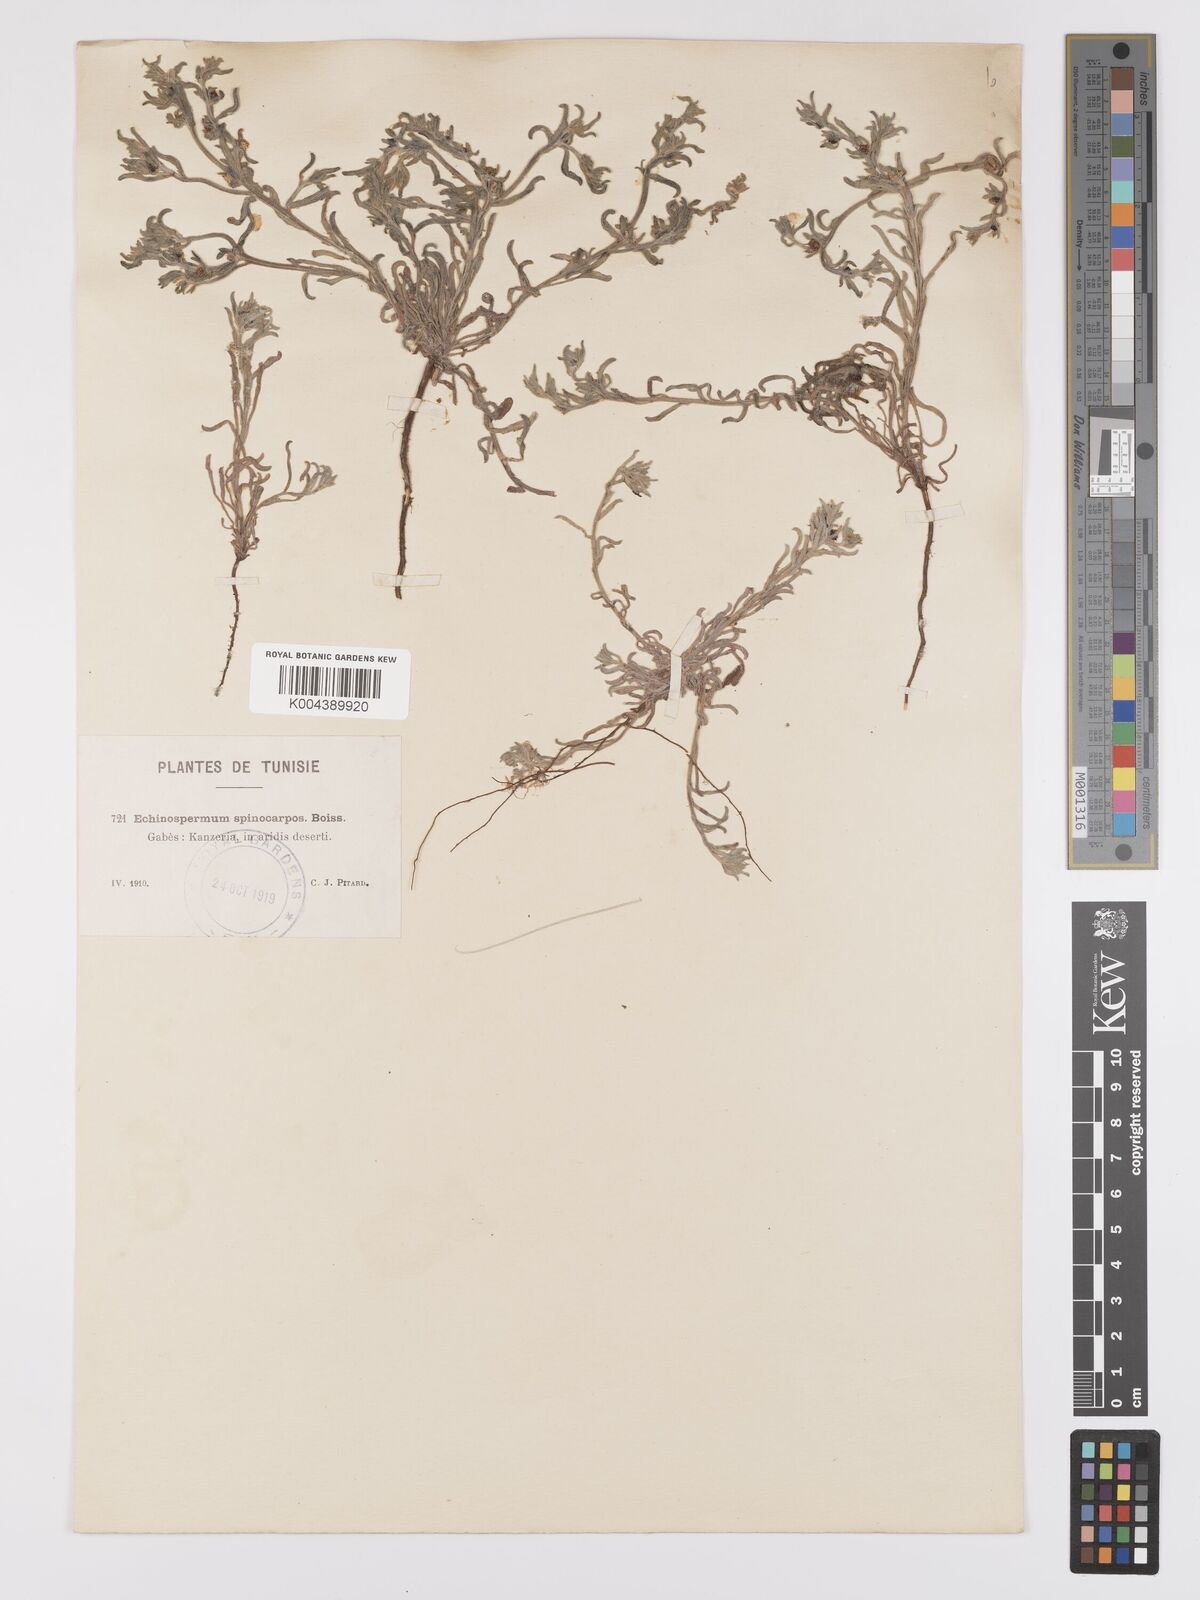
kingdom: Plantae
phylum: Tracheophyta
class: Magnoliopsida
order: Boraginales
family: Boraginaceae
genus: Lappula
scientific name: Lappula spinocarpos
